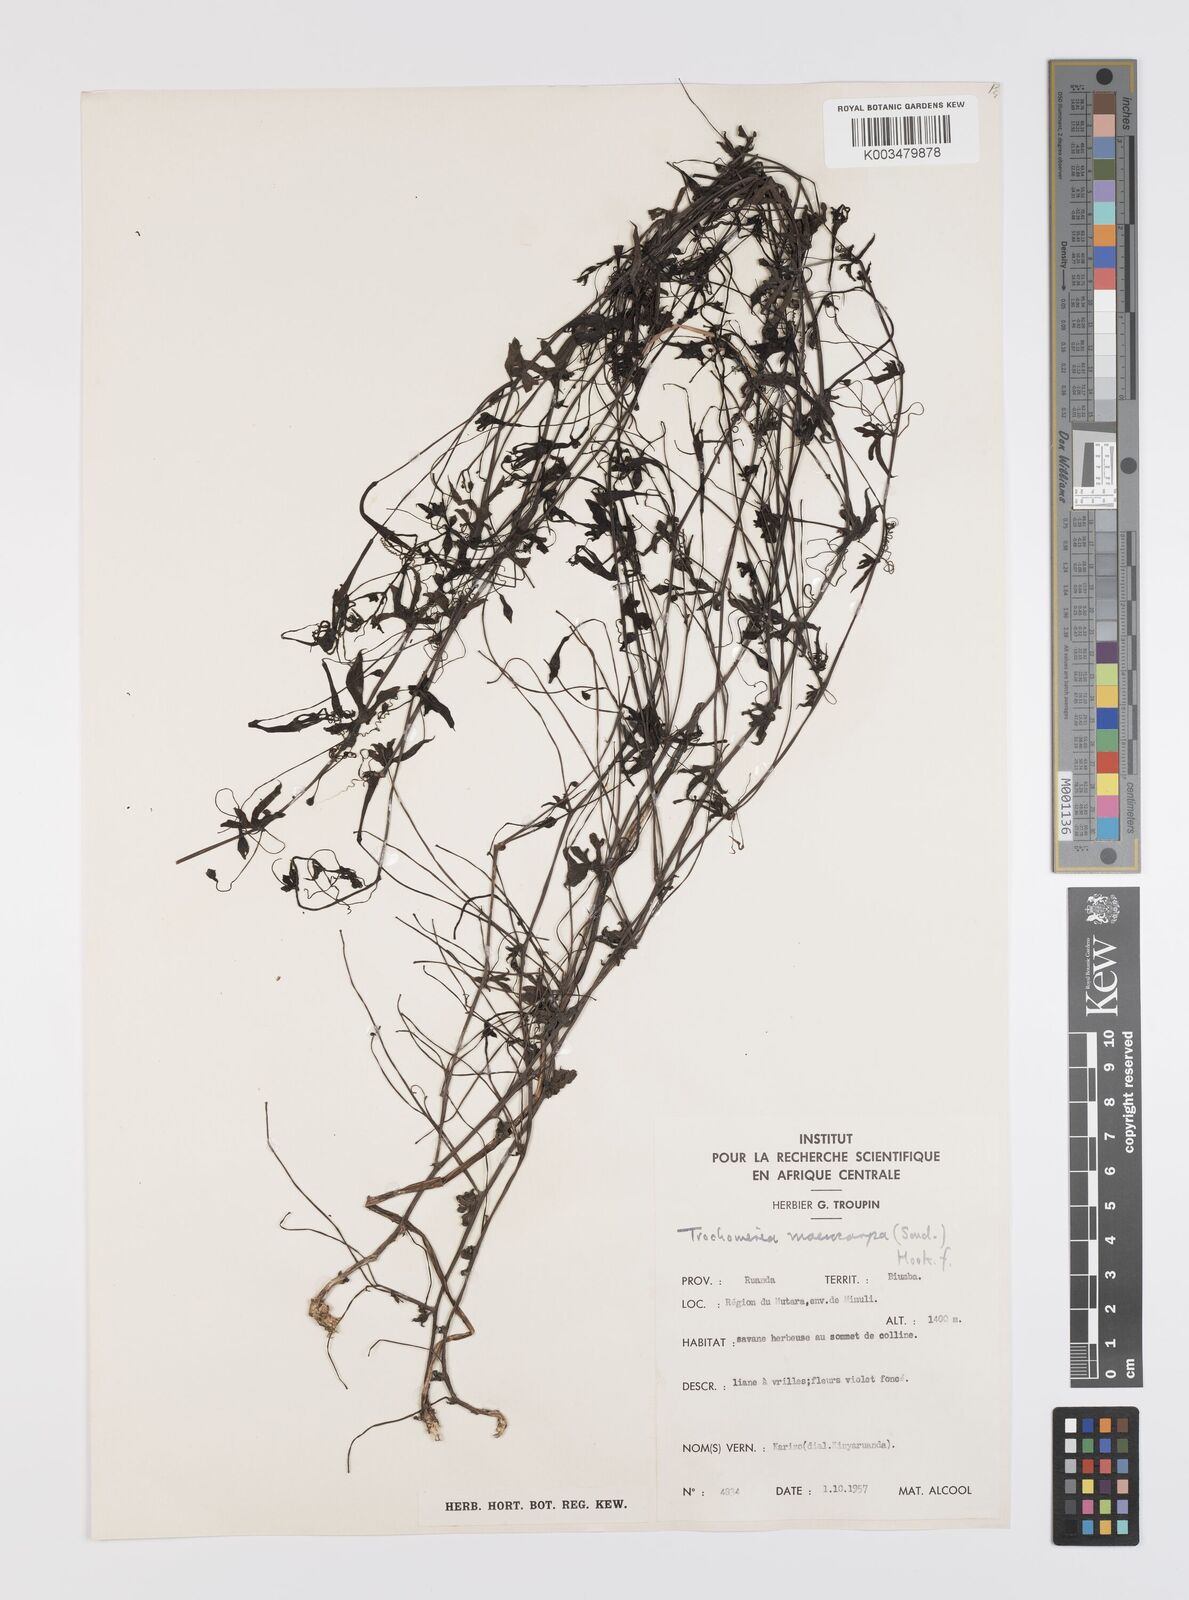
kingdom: Plantae
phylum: Tracheophyta
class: Magnoliopsida
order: Cucurbitales
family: Cucurbitaceae
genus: Trochomeria
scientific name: Trochomeria macrocarpa
